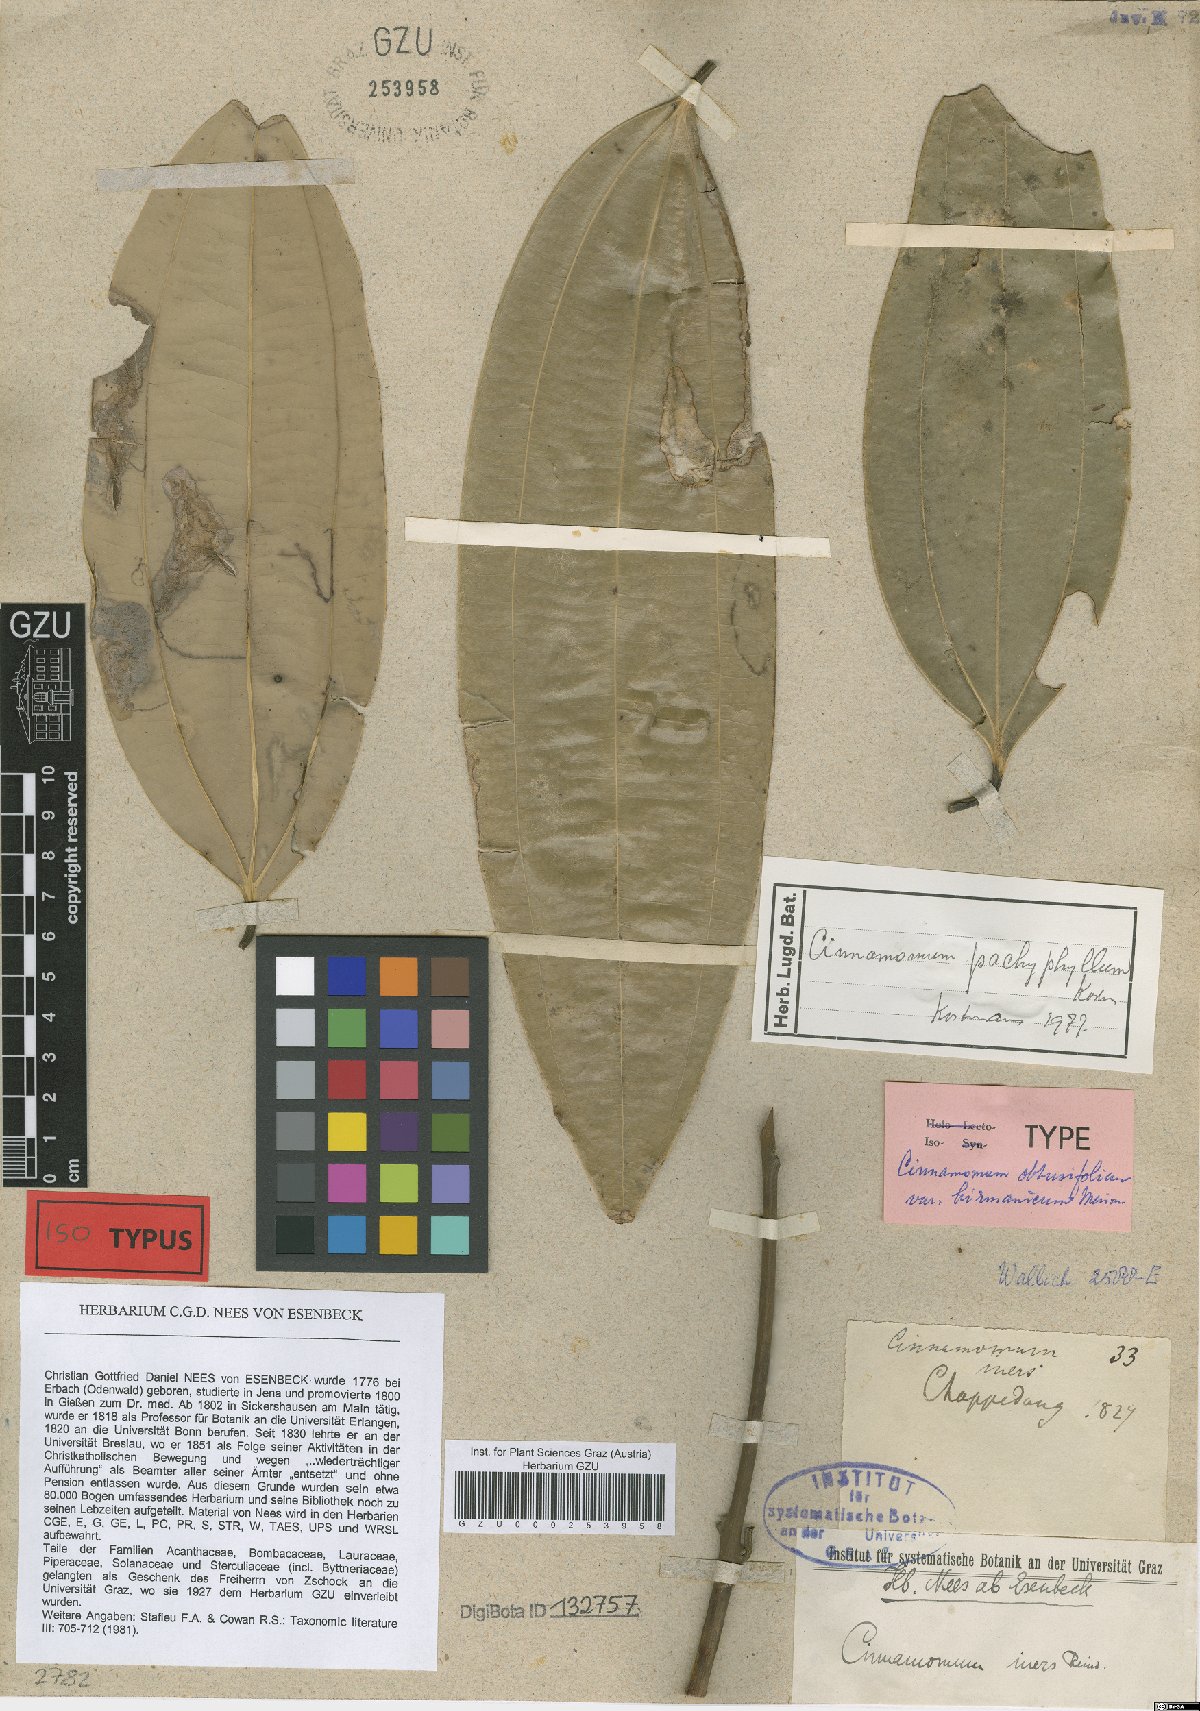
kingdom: Plantae
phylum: Tracheophyta
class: Magnoliopsida
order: Laurales
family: Lauraceae
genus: Cinnamomum
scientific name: Cinnamomum pachyphyllum
